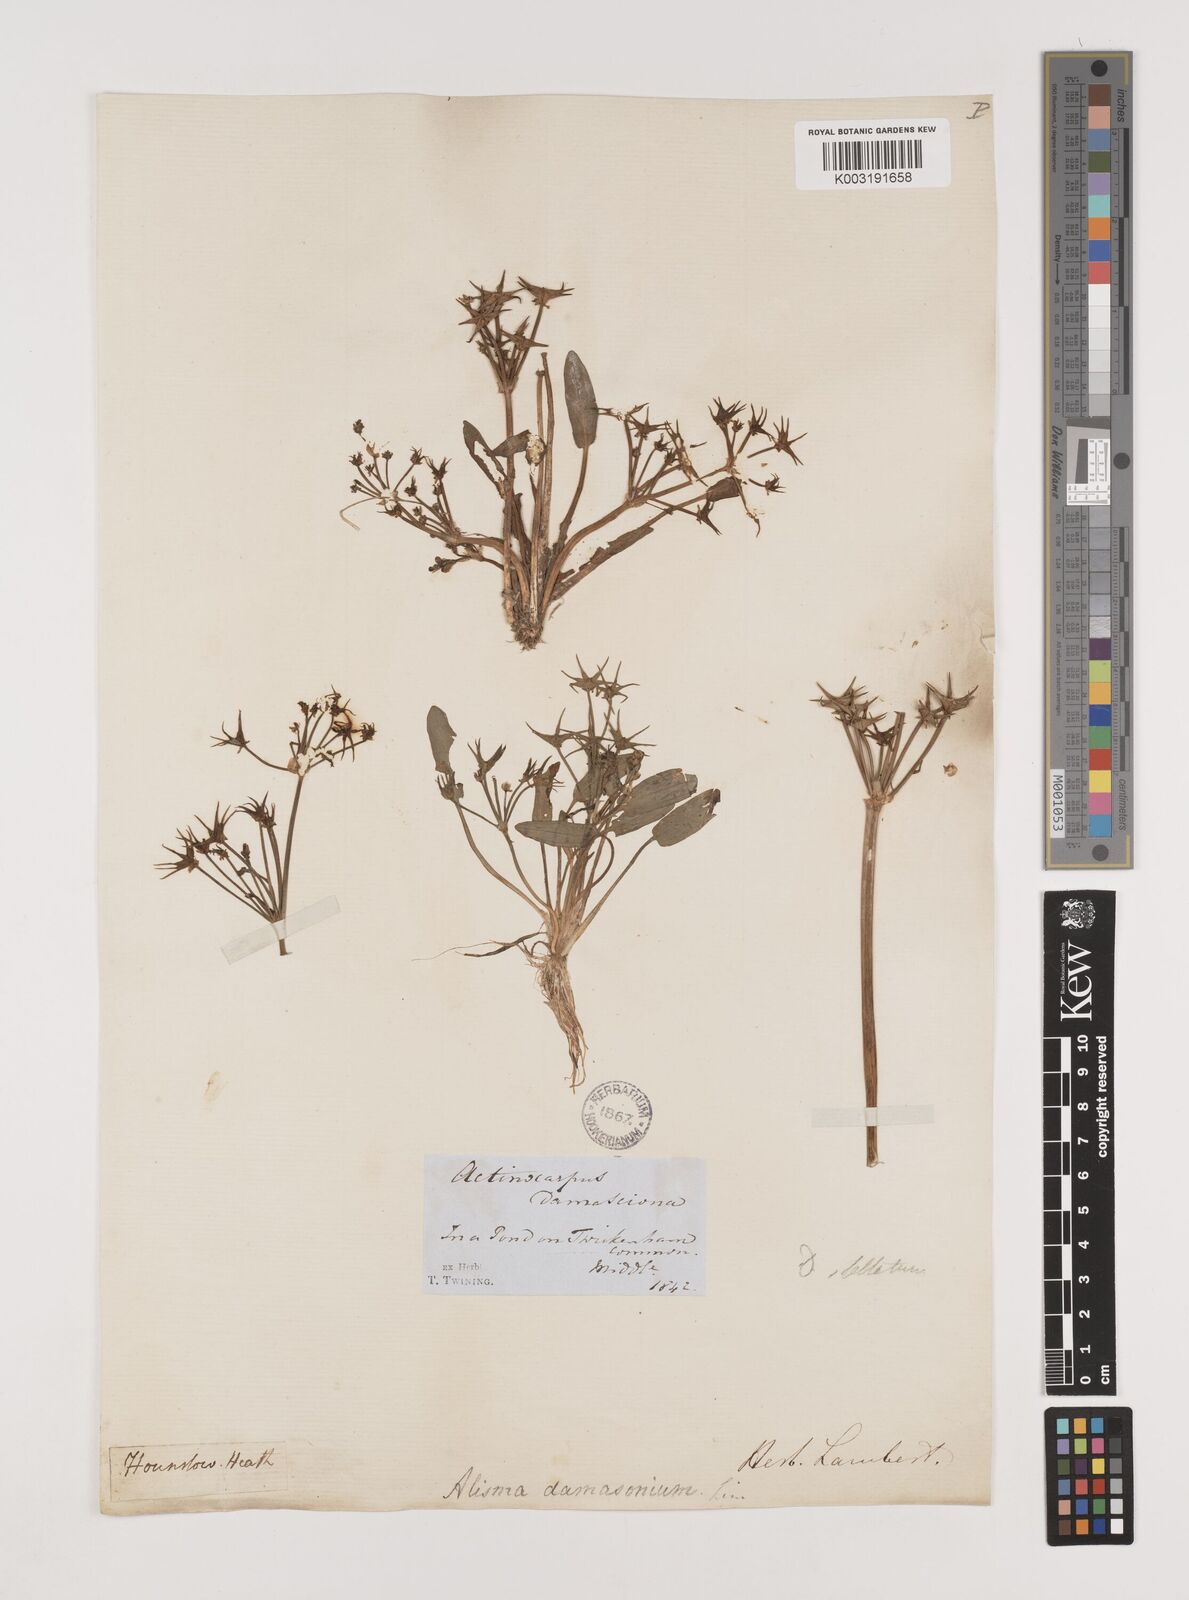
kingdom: Plantae
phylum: Tracheophyta
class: Liliopsida
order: Alismatales
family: Alismataceae
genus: Damasonium
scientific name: Damasonium alisma
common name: Starfruit
